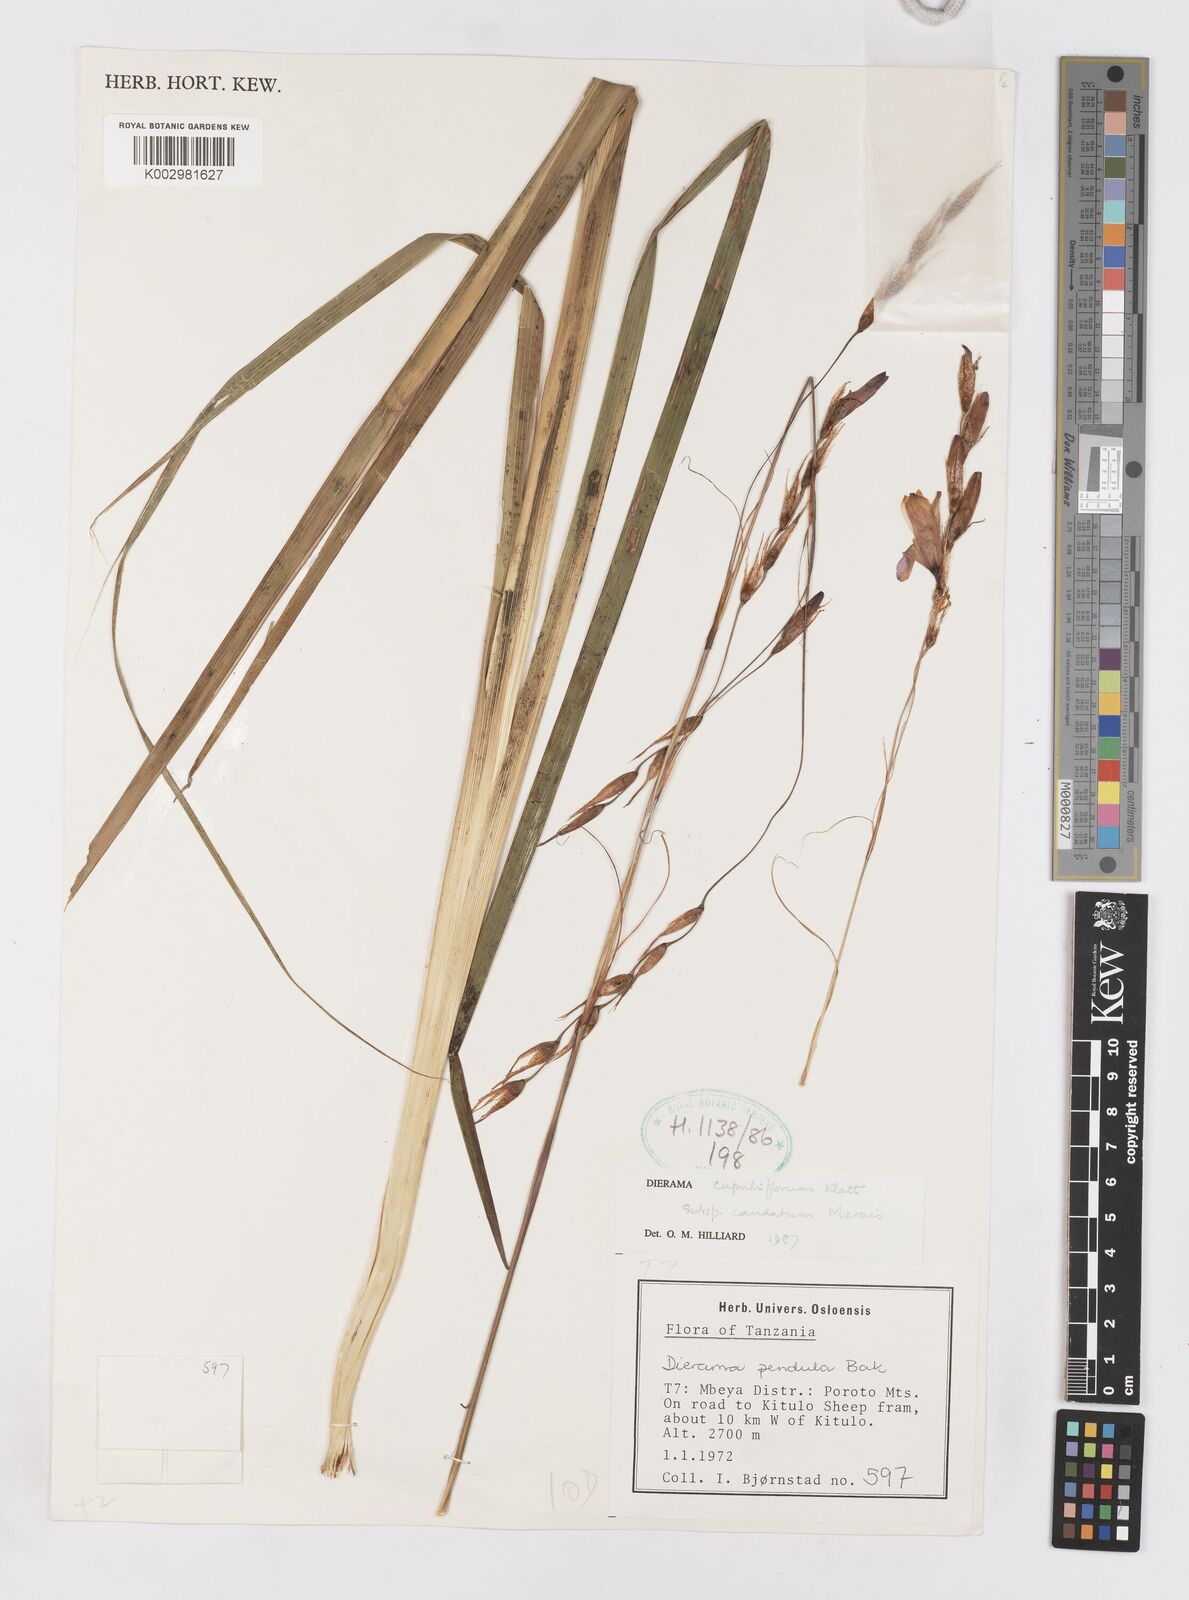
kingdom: Plantae
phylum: Tracheophyta
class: Liliopsida
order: Asparagales
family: Iridaceae
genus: Dierama
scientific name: Dierama cupuliflorum
